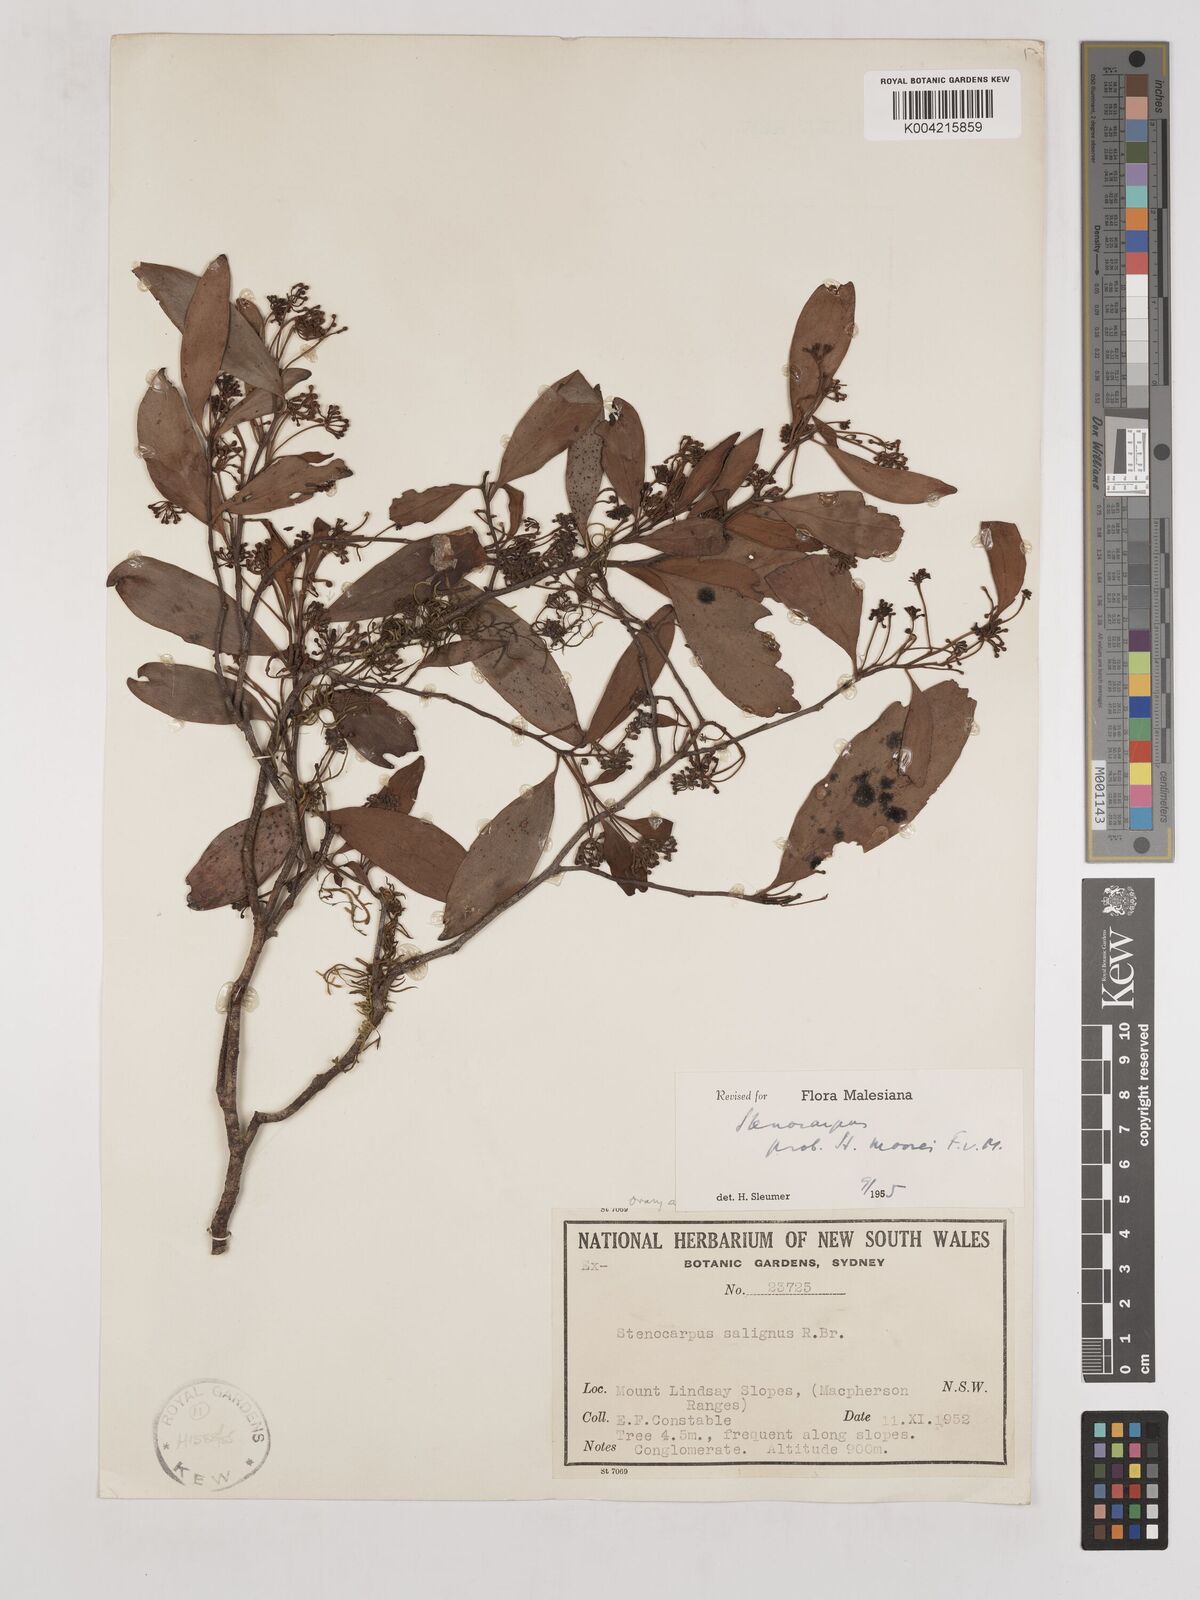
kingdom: Plantae
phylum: Tracheophyta
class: Magnoliopsida
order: Proteales
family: Proteaceae
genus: Stenocarpus
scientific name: Stenocarpus salignus
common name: Red silky-oak
